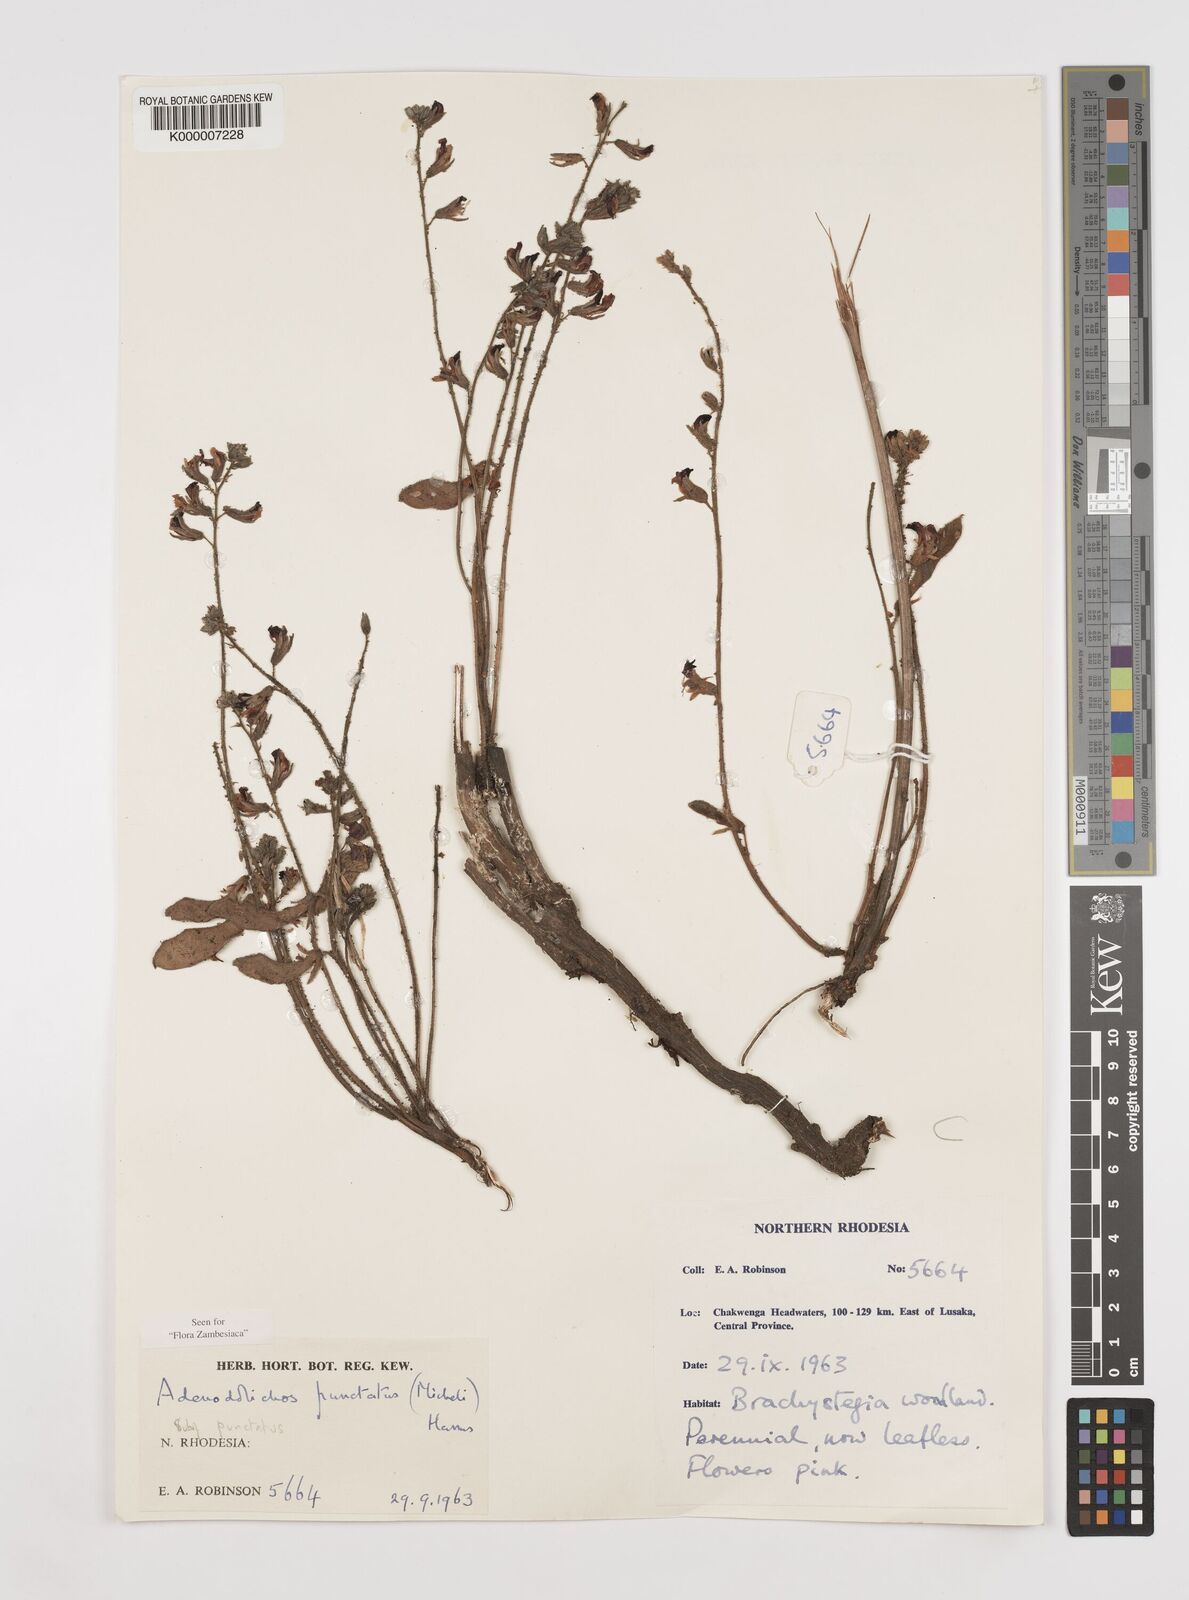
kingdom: Plantae
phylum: Tracheophyta
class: Magnoliopsida
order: Fabales
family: Fabaceae
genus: Adenodolichos
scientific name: Adenodolichos punctatus
